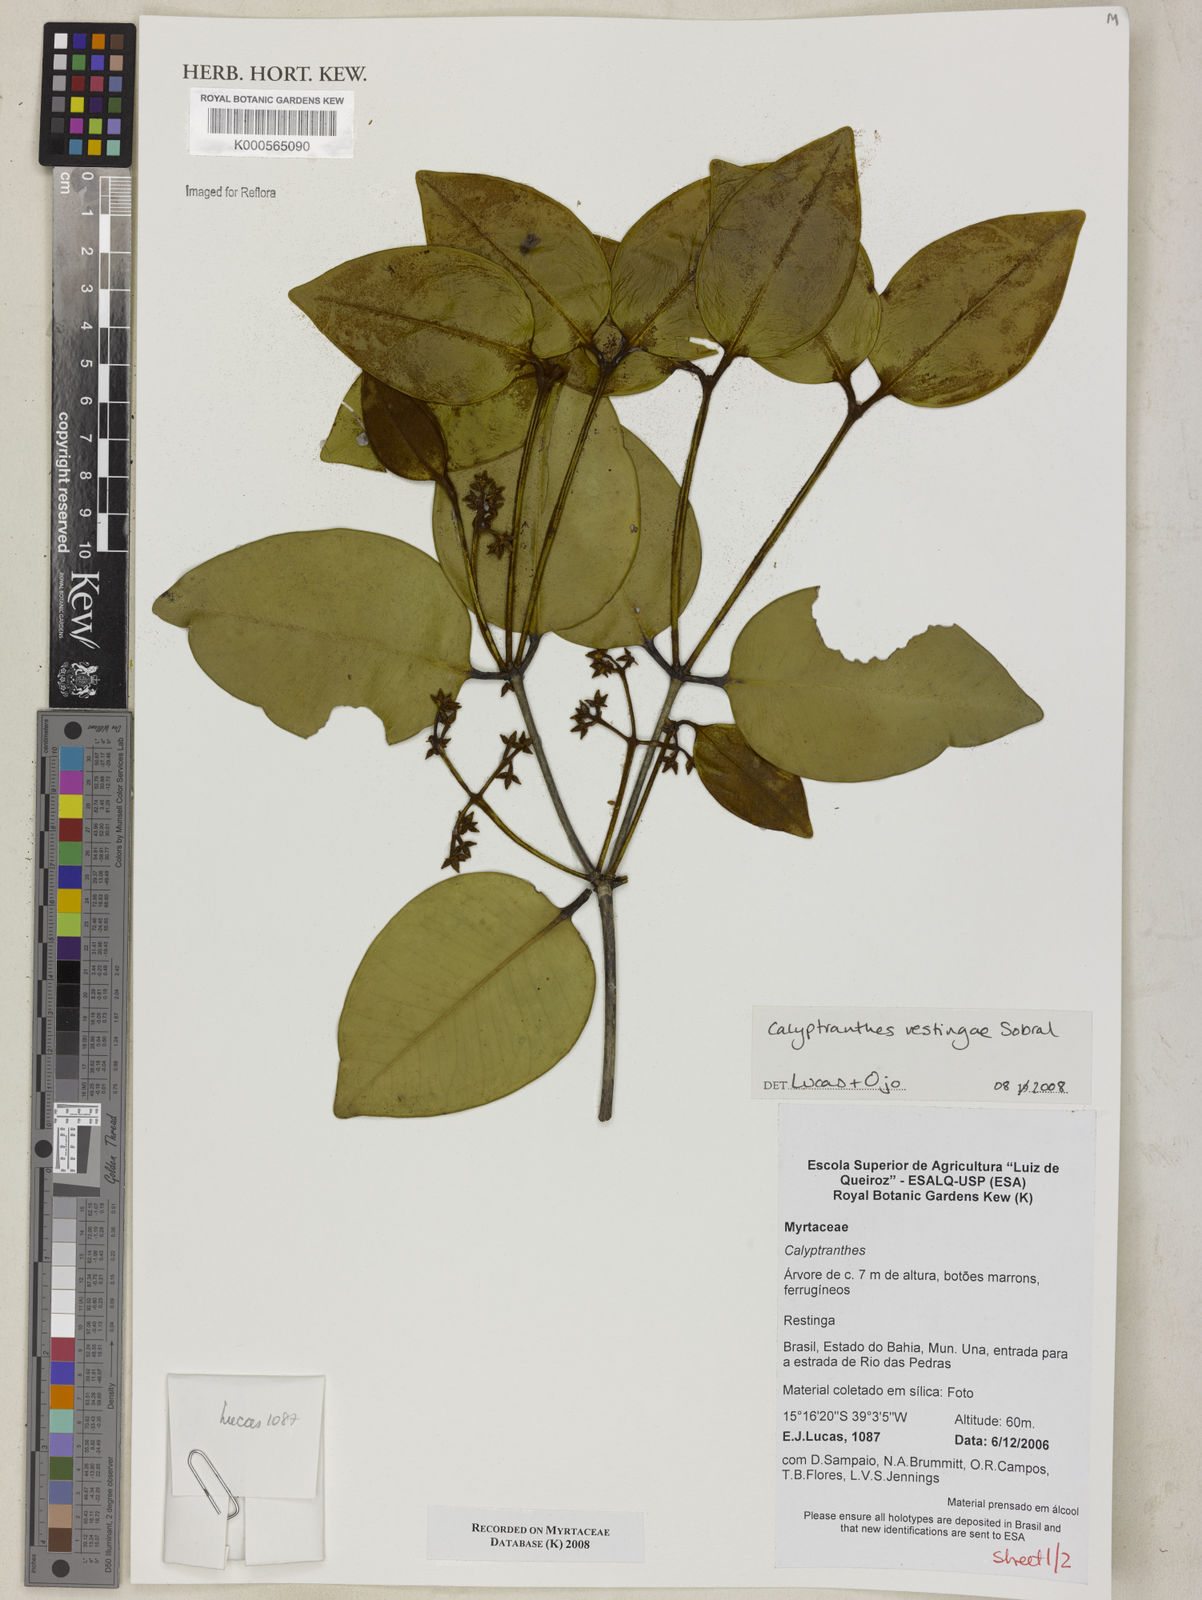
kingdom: Plantae
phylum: Tracheophyta
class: Magnoliopsida
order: Myrtales
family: Myrtaceae
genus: Myrcia
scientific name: Myrcia restingae
